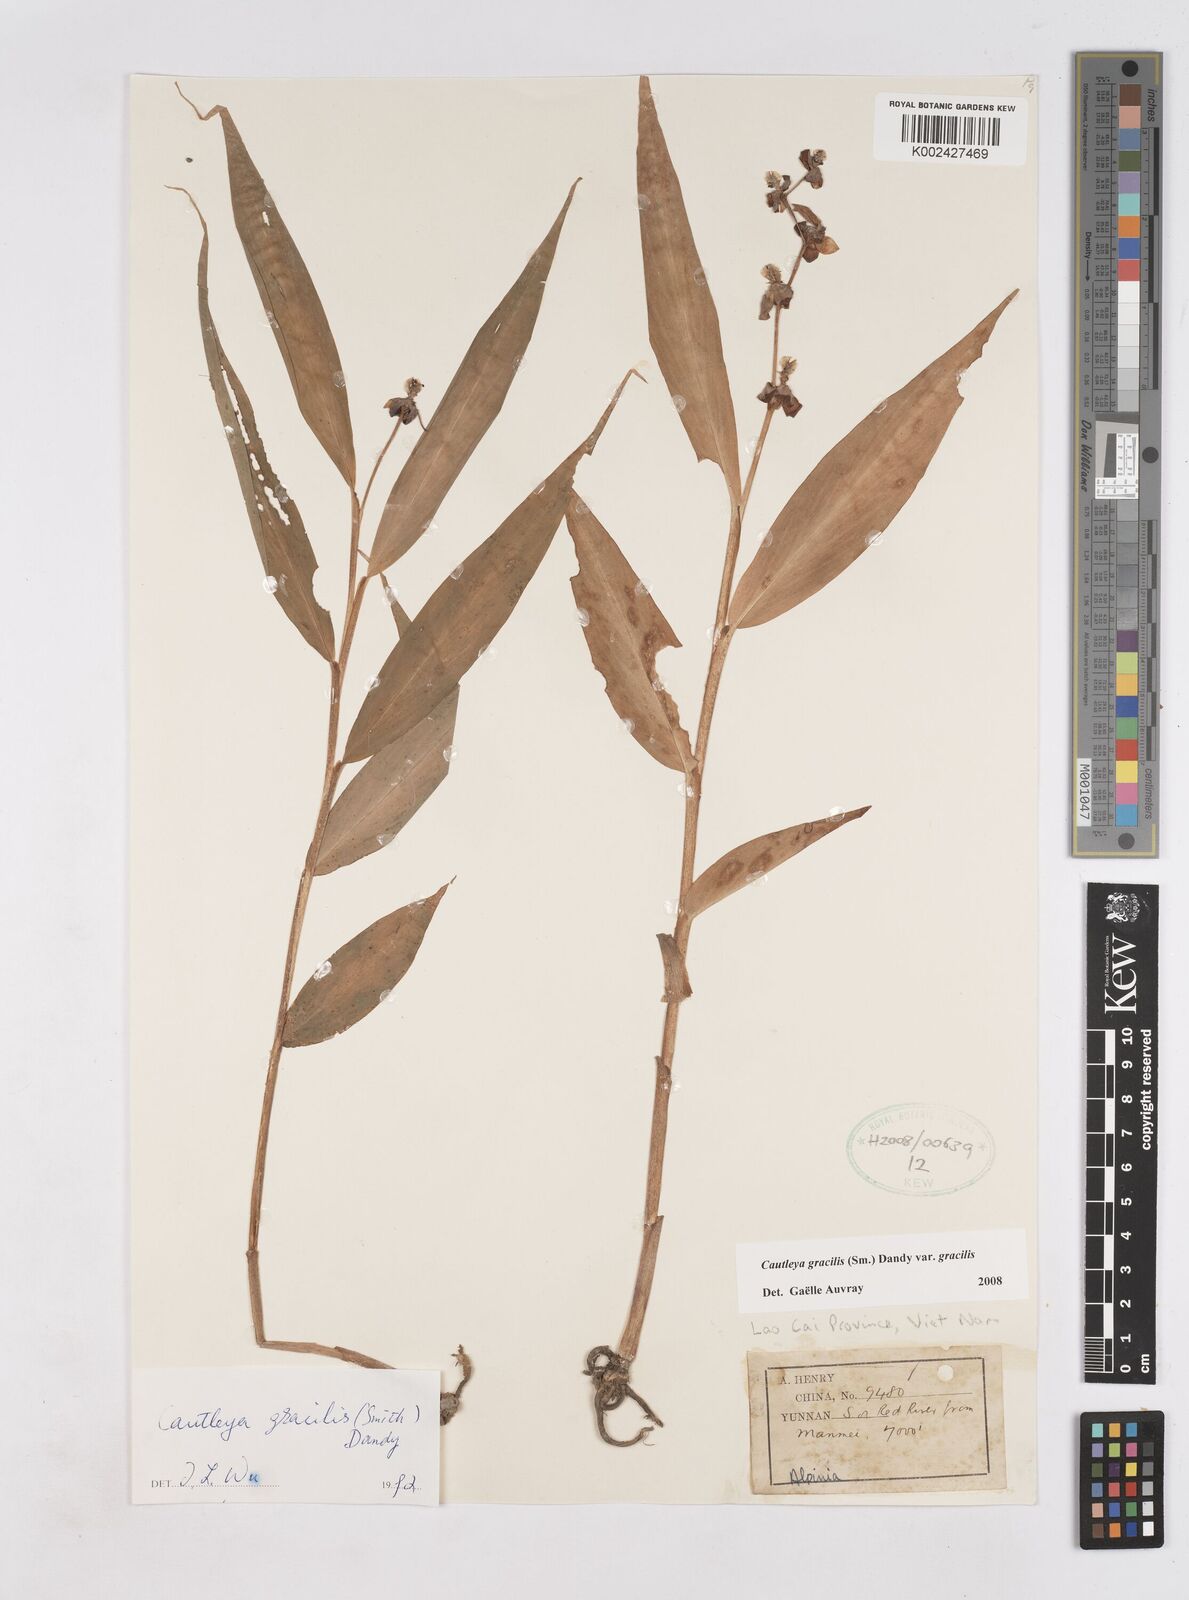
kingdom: Plantae
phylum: Tracheophyta
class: Liliopsida
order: Zingiberales
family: Zingiberaceae
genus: Cautleya
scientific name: Cautleya gracilis
